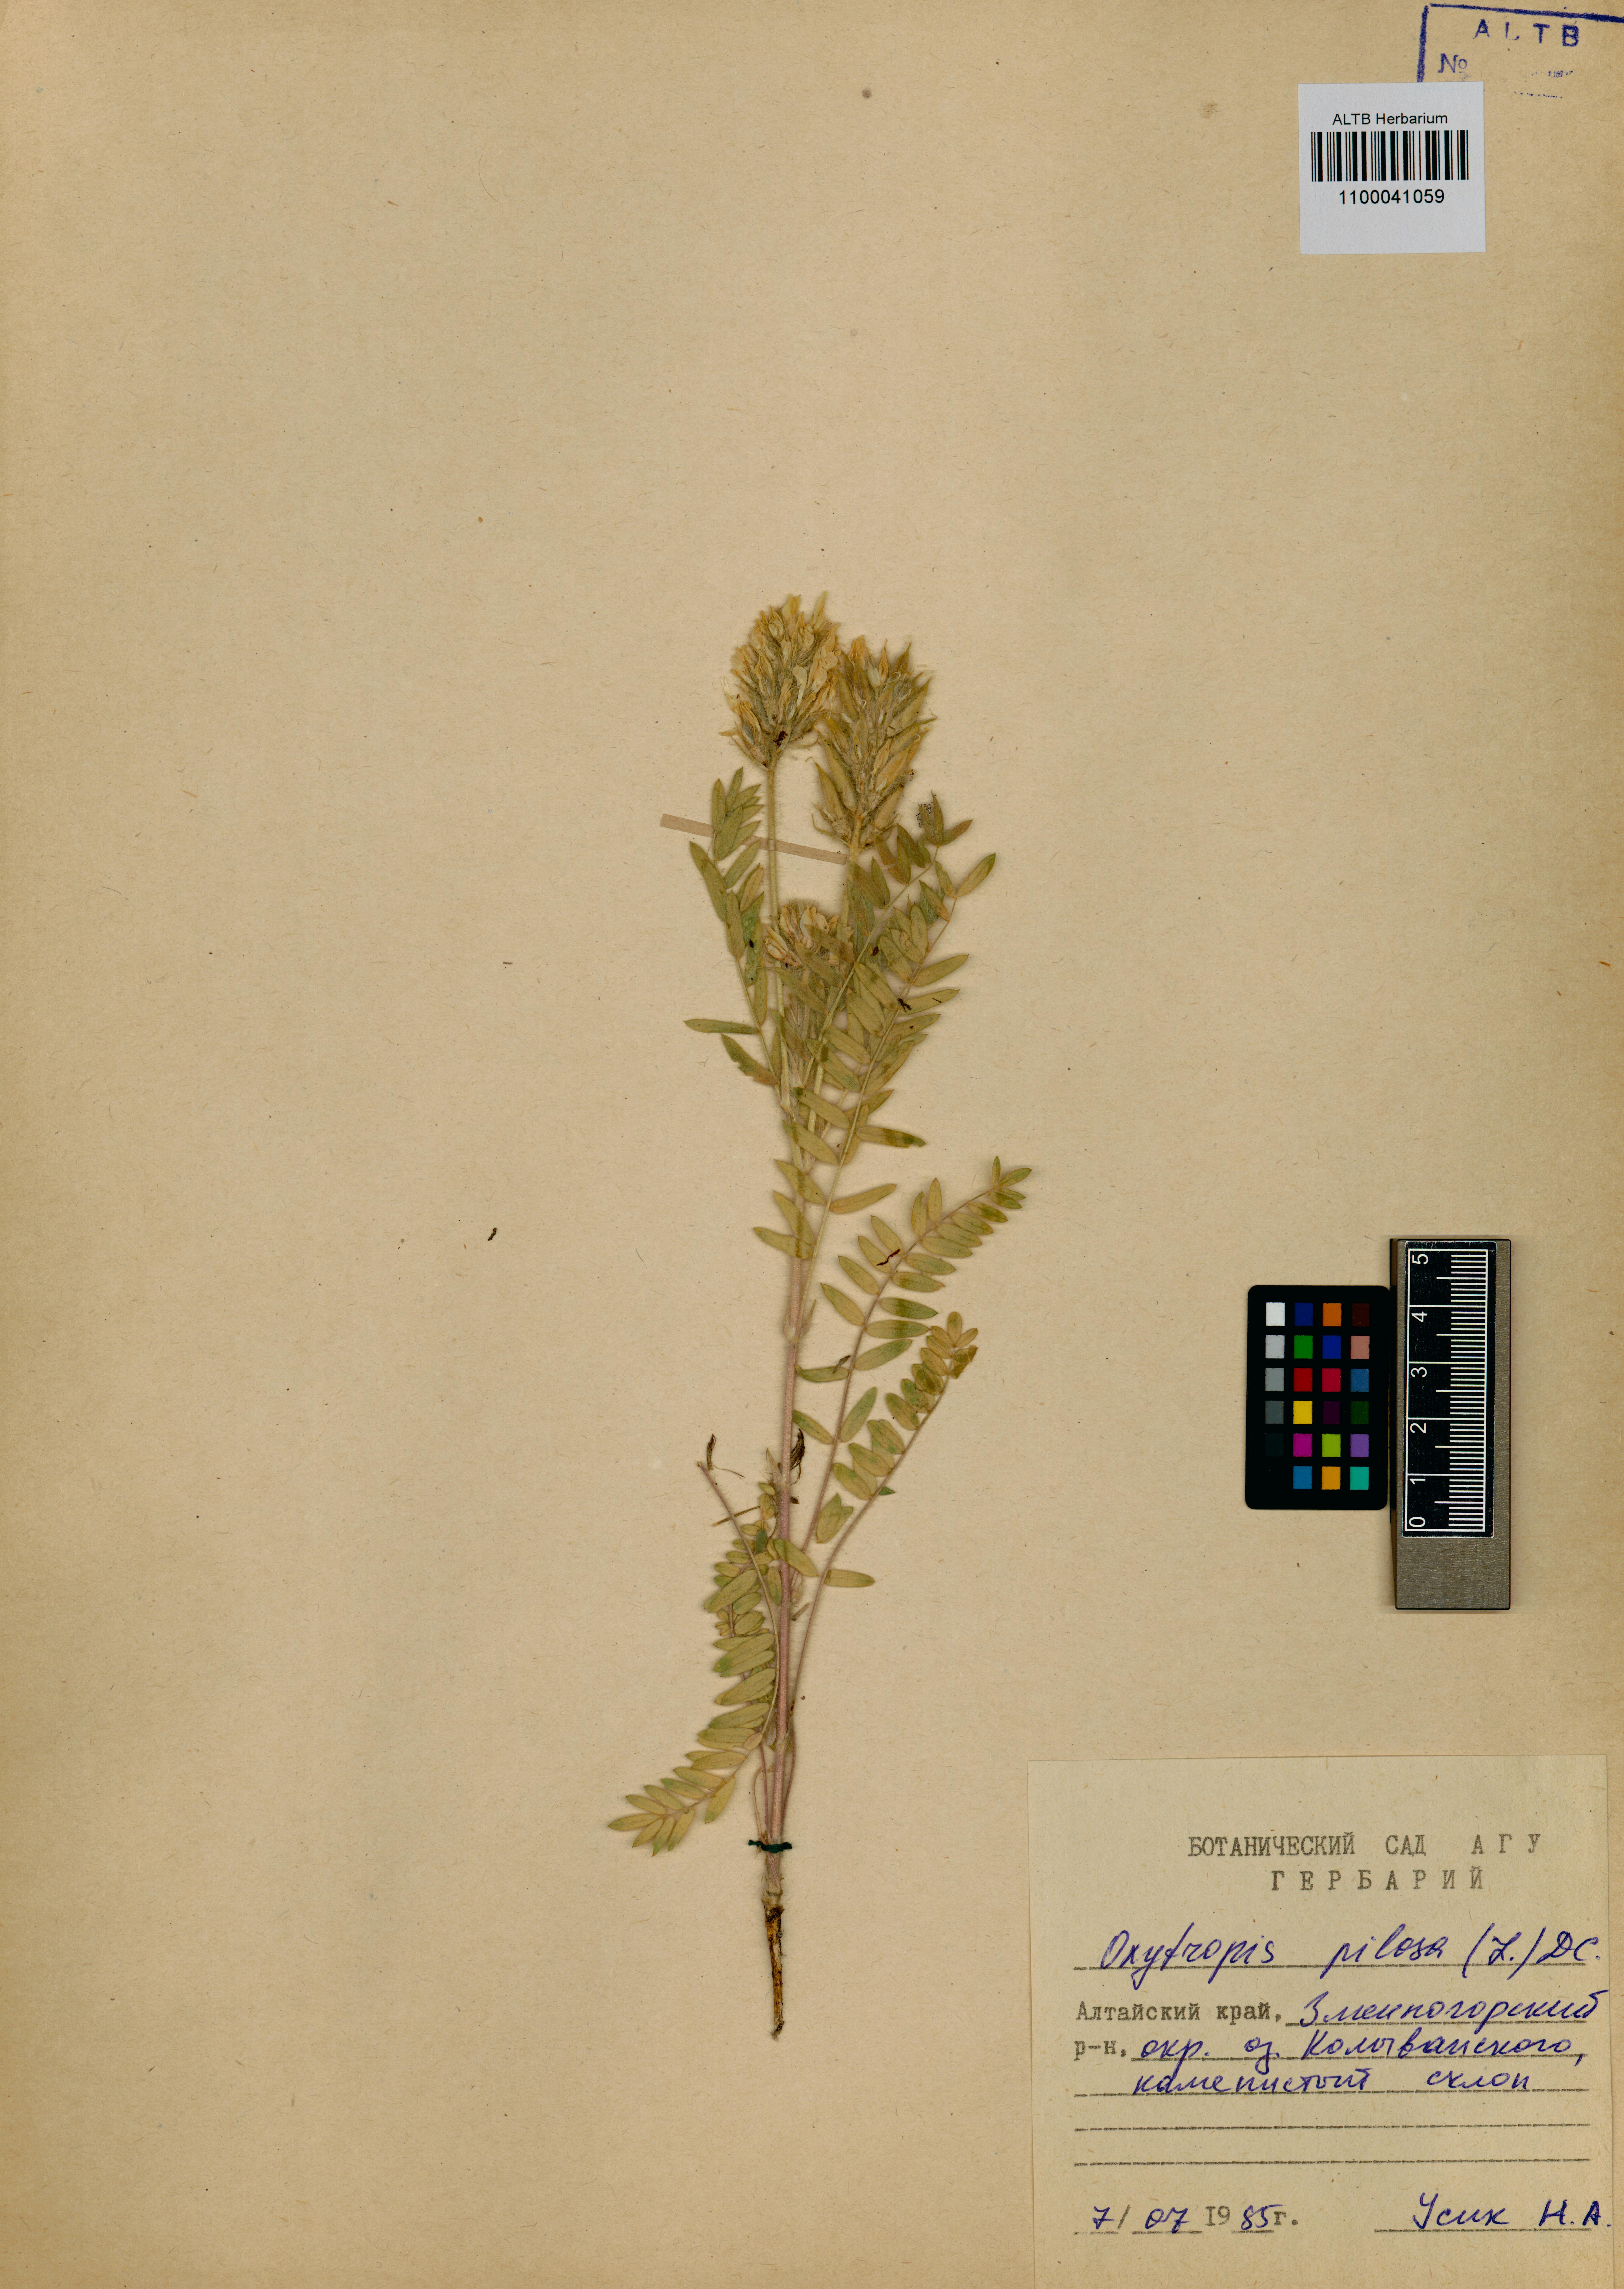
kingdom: Plantae
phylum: Tracheophyta
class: Magnoliopsida
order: Fabales
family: Fabaceae
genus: Oxytropis
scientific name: Oxytropis pilosa
